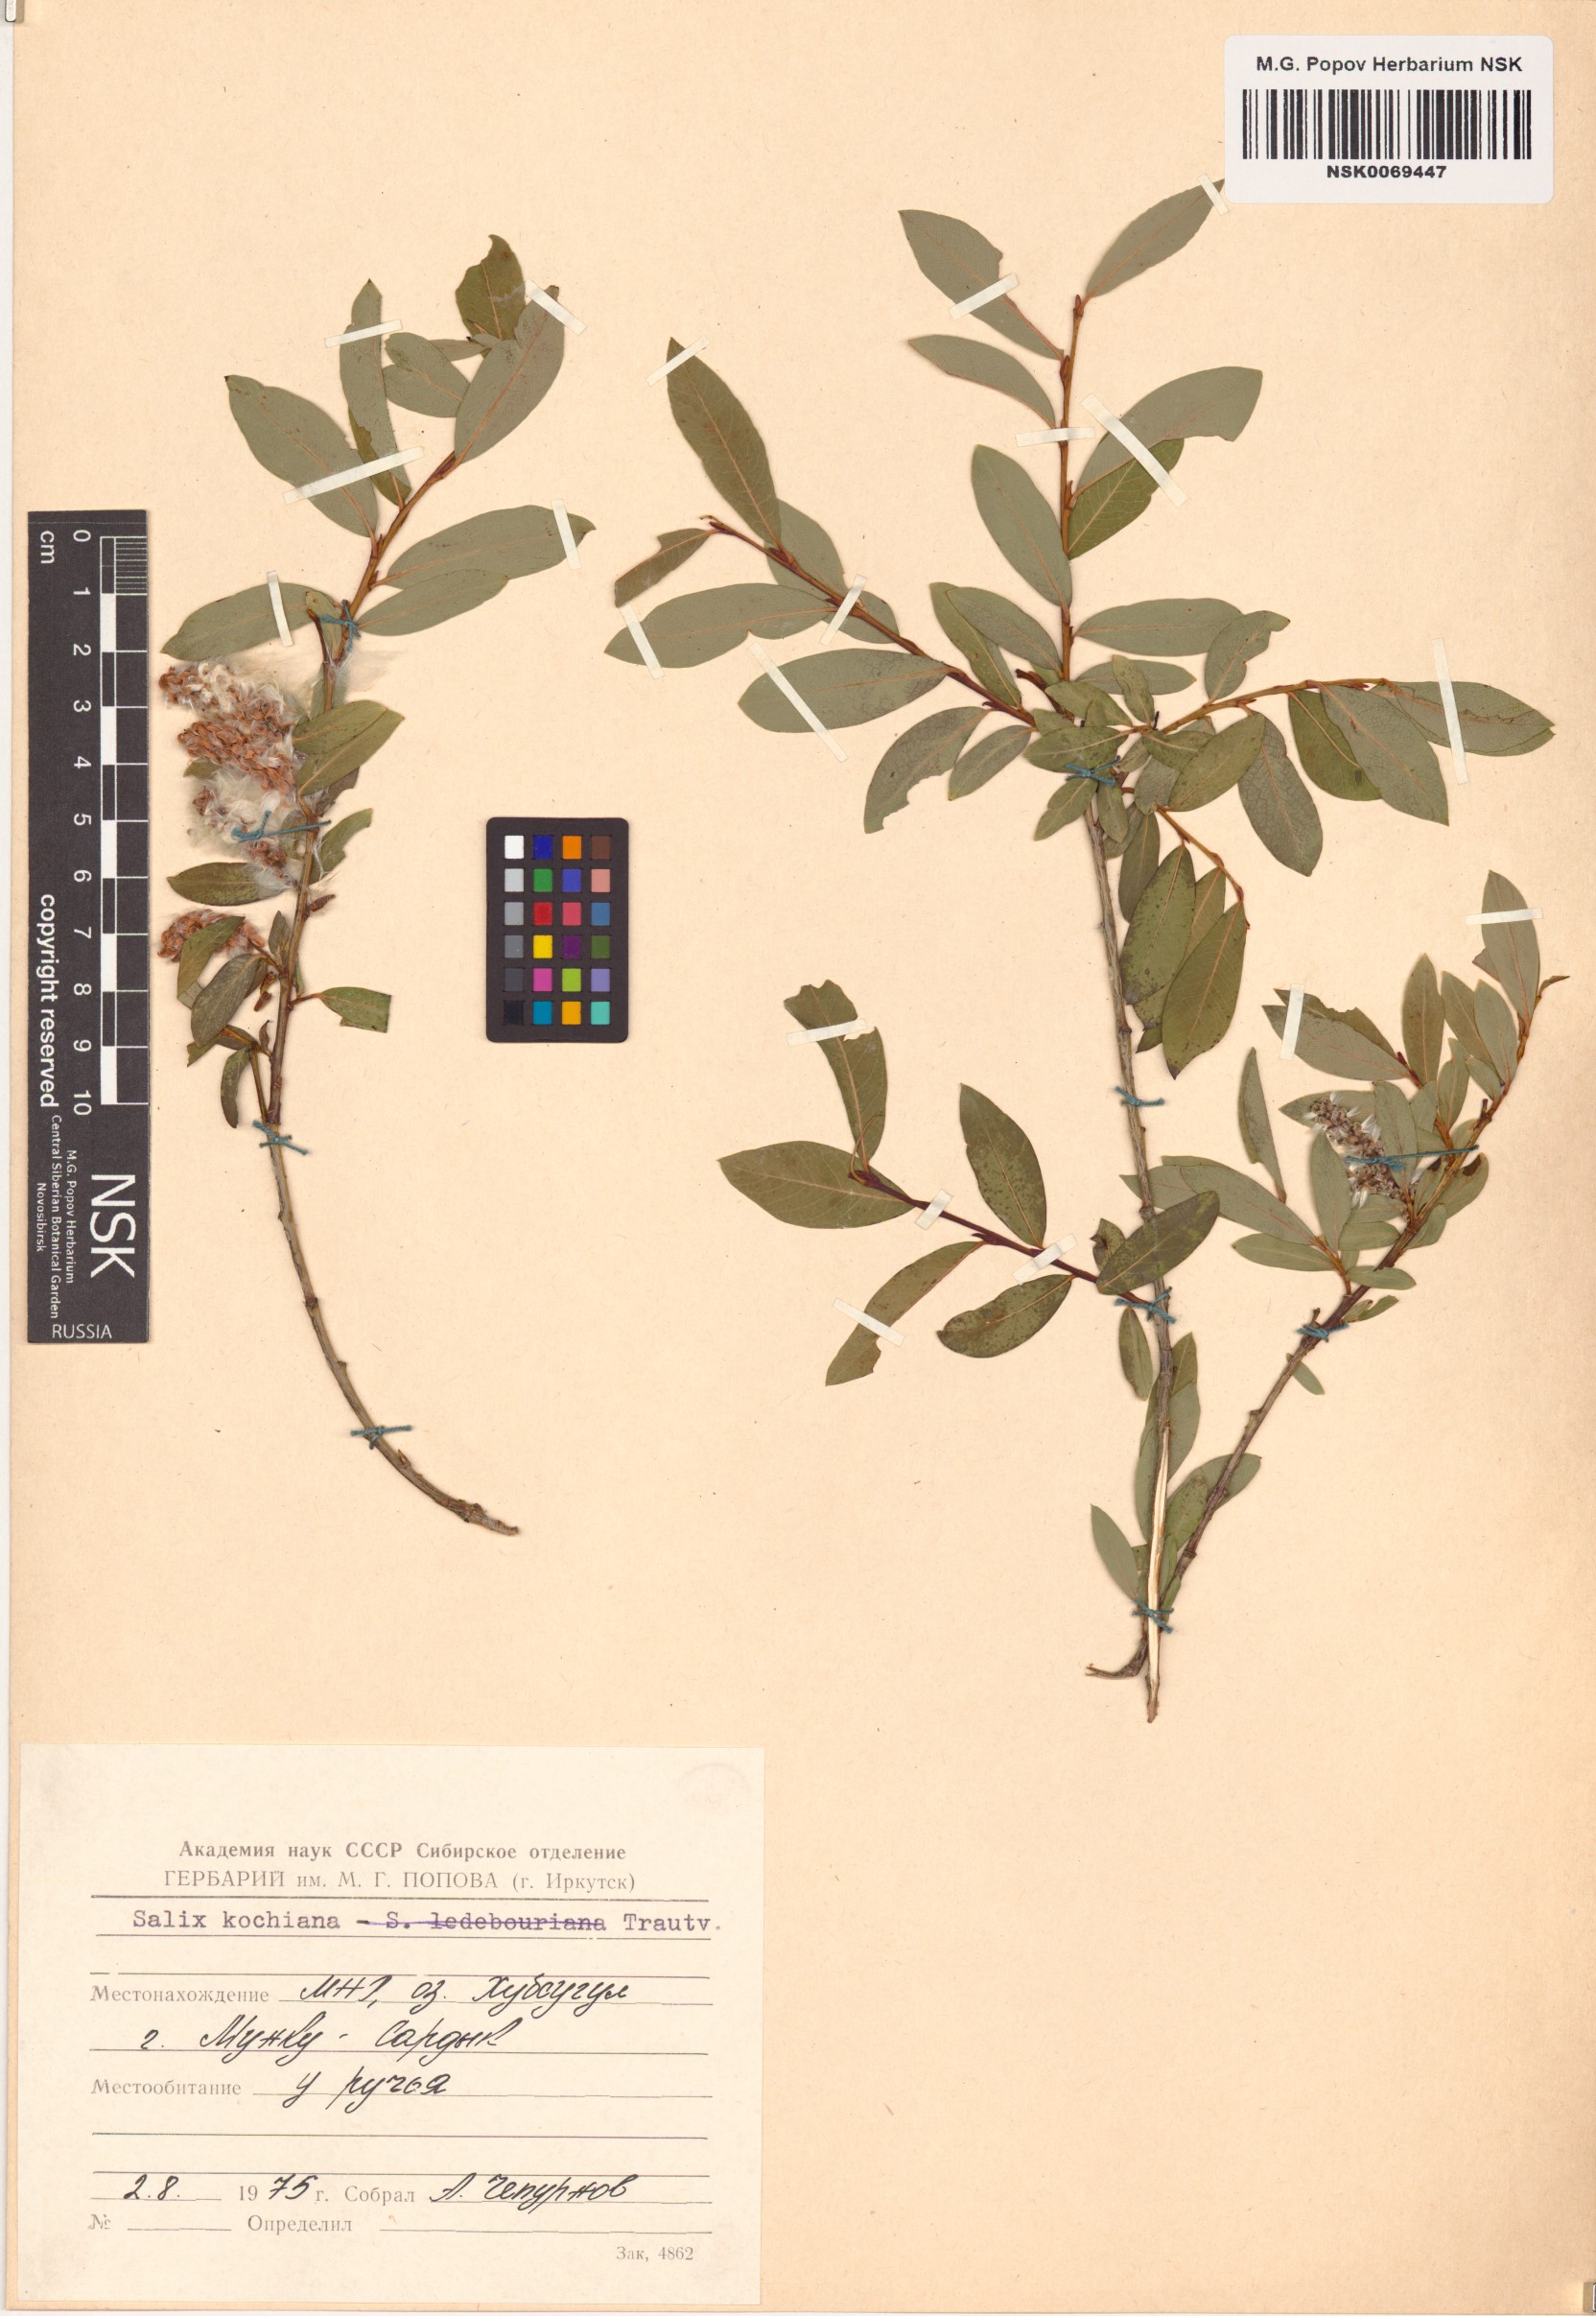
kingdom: Plantae
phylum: Tracheophyta
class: Magnoliopsida
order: Malpighiales
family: Salicaceae
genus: Salix
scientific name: Salix kochiana
